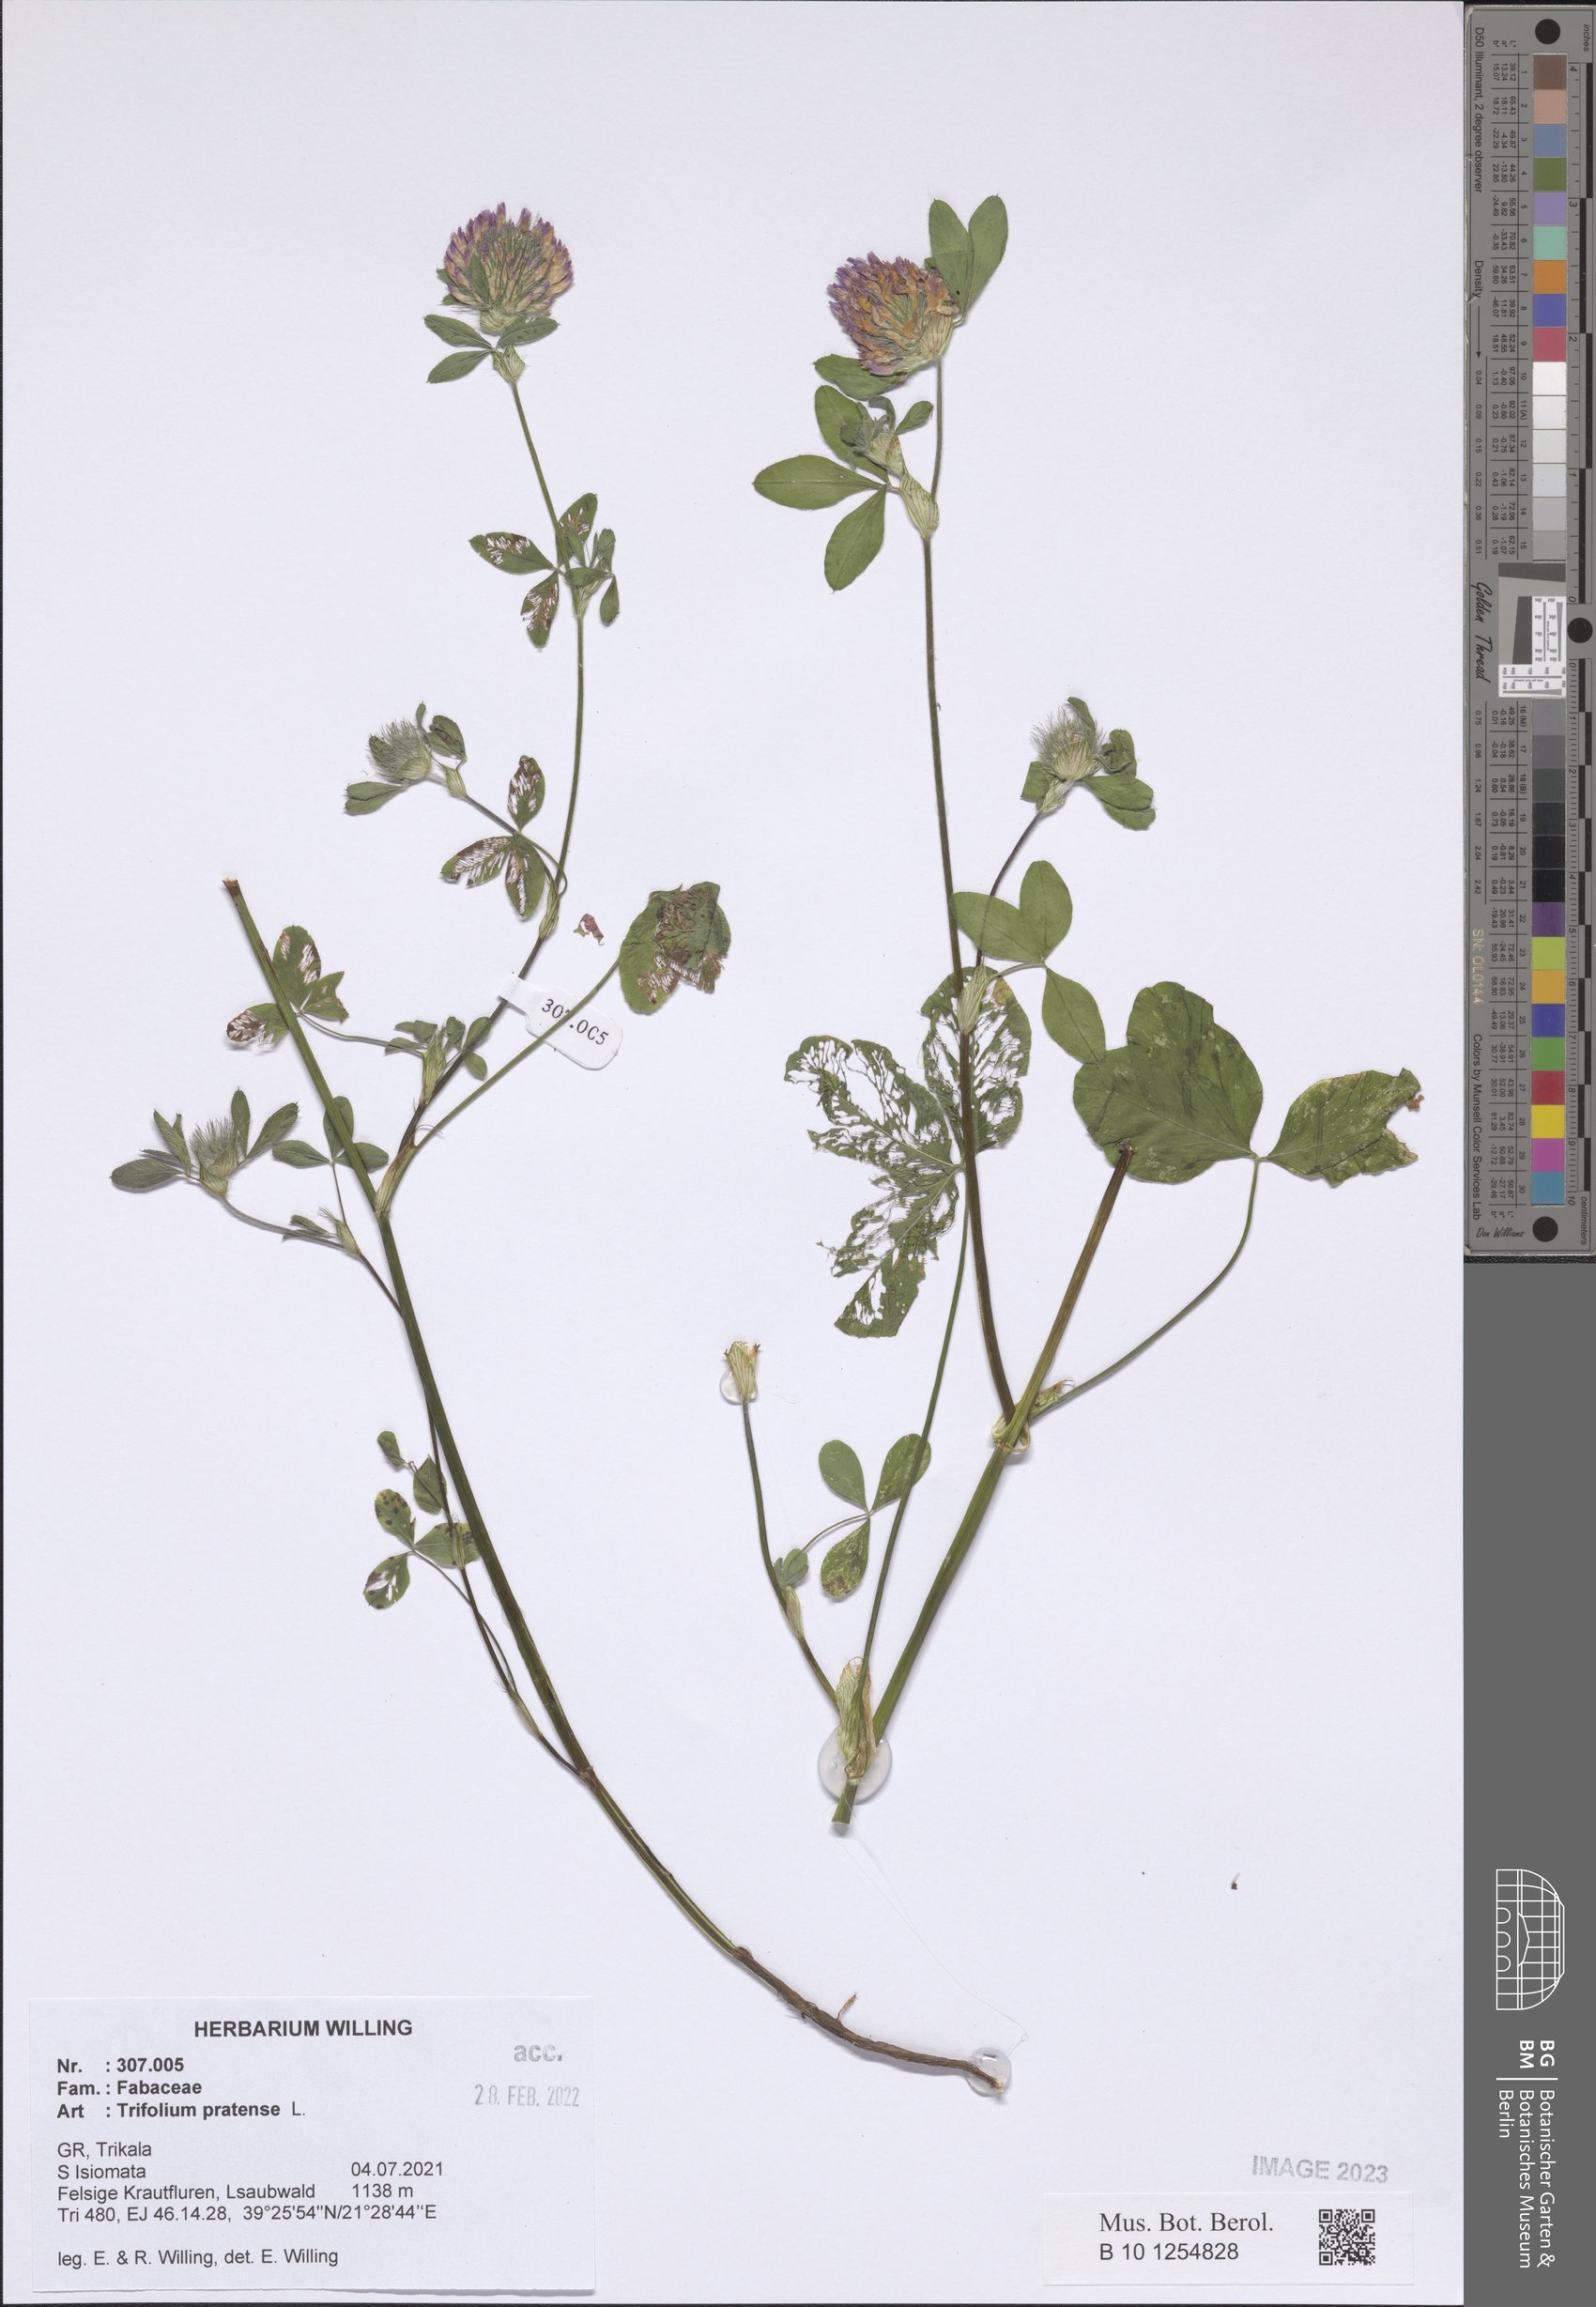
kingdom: Plantae
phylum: Tracheophyta
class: Magnoliopsida
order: Fabales
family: Fabaceae
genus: Trifolium
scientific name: Trifolium pratense
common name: Red clover
